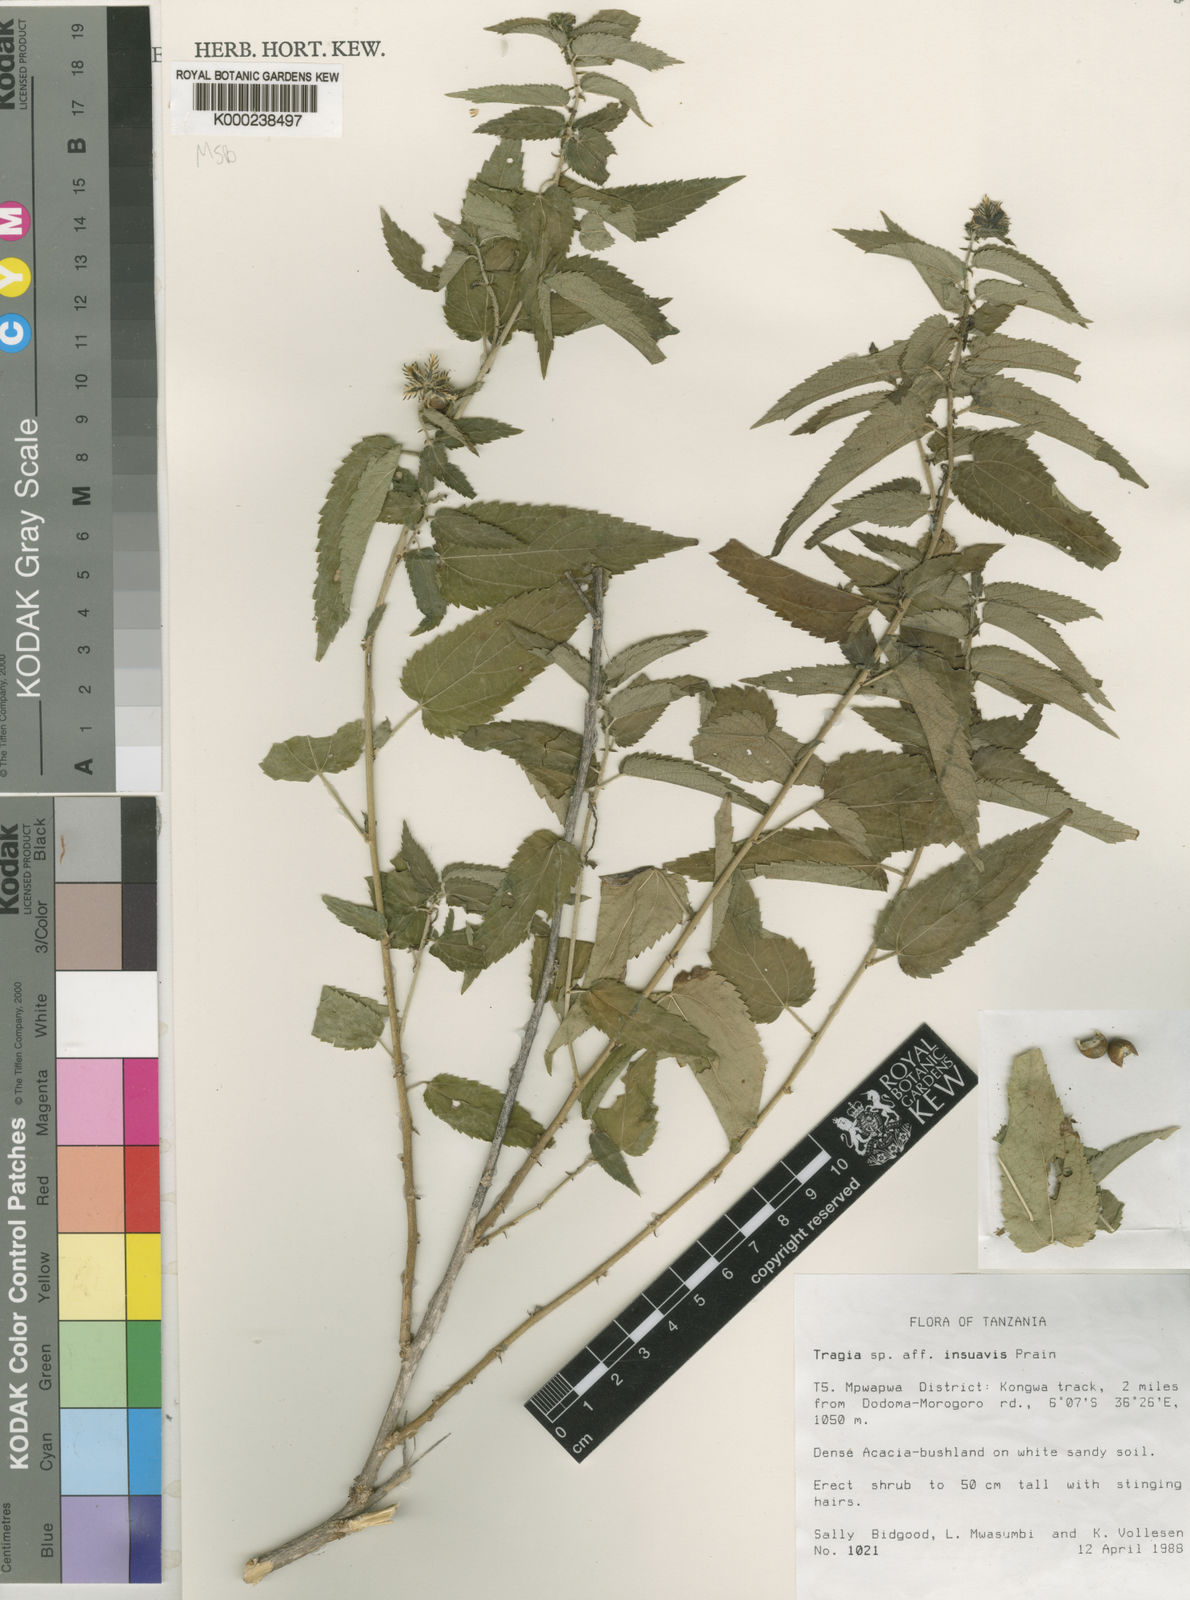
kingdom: Plantae
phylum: Tracheophyta
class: Magnoliopsida
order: Malpighiales
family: Euphorbiaceae
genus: Tragia
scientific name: Tragia insuavis
